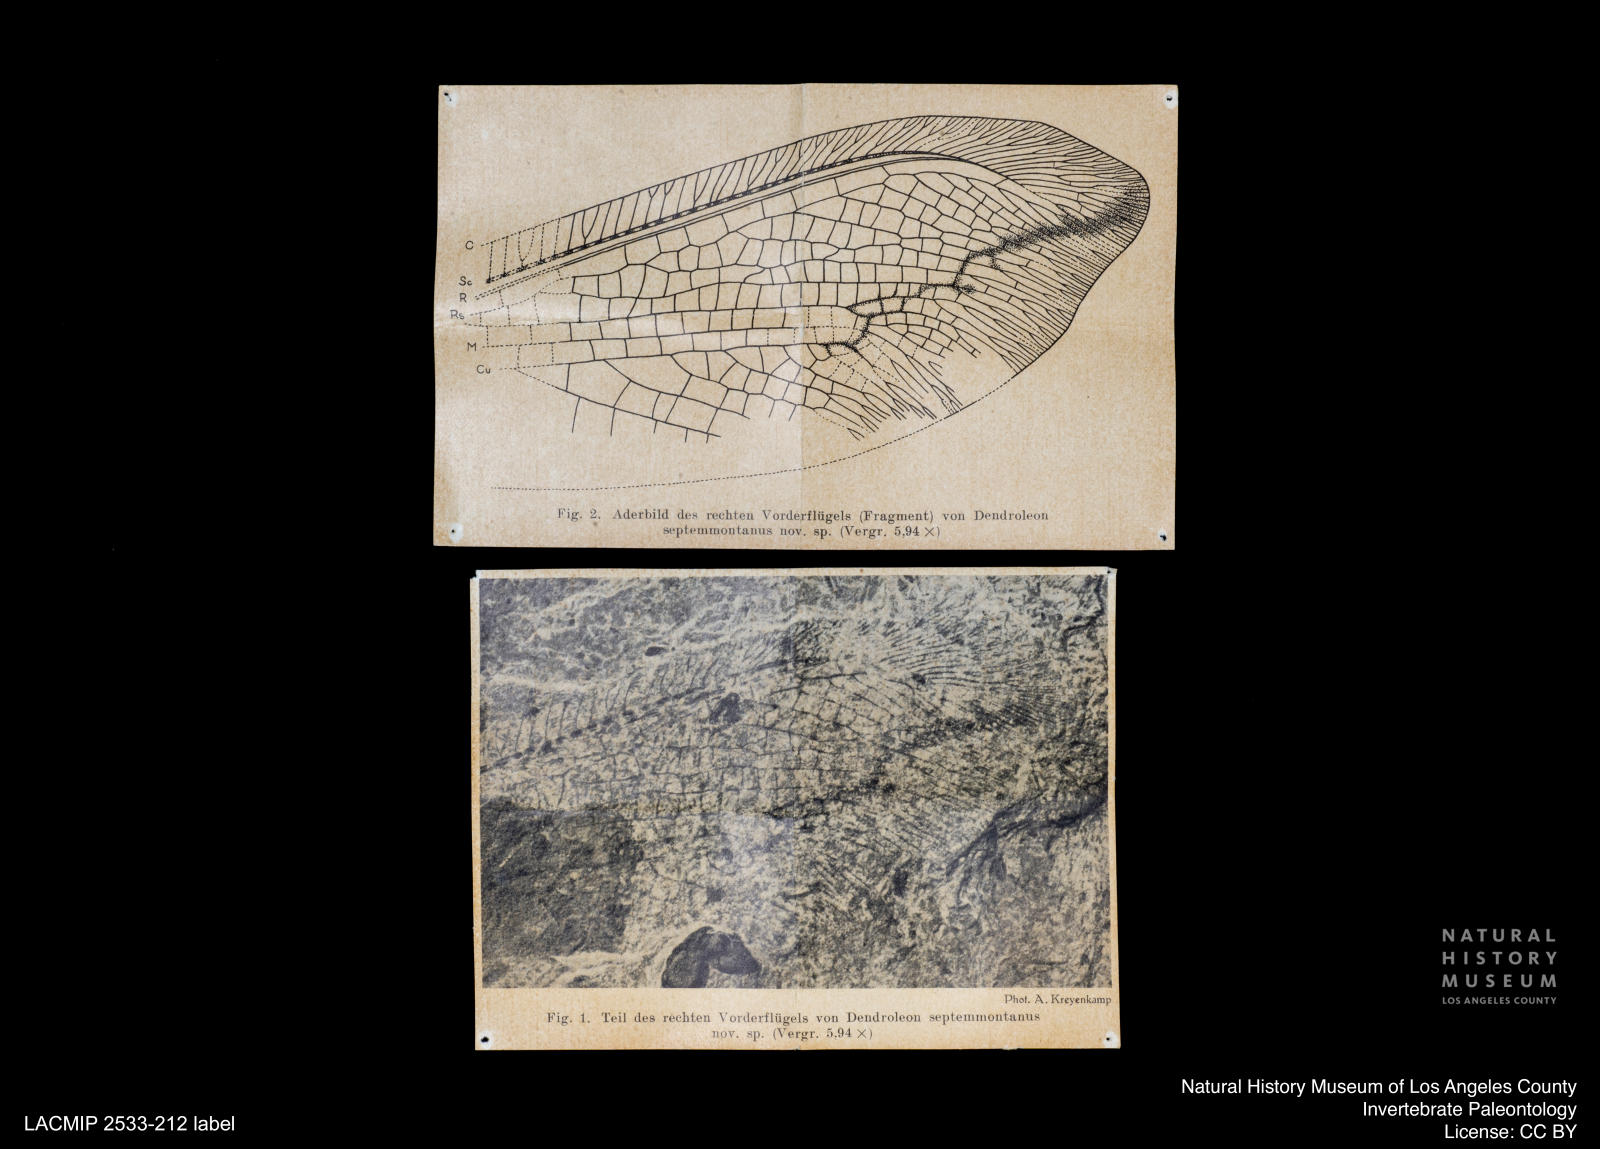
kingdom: Animalia
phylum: Arthropoda
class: Insecta
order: Neuroptera
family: Myrmeleontidae
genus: Dendroleon
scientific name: Dendroleon septemmontanus
